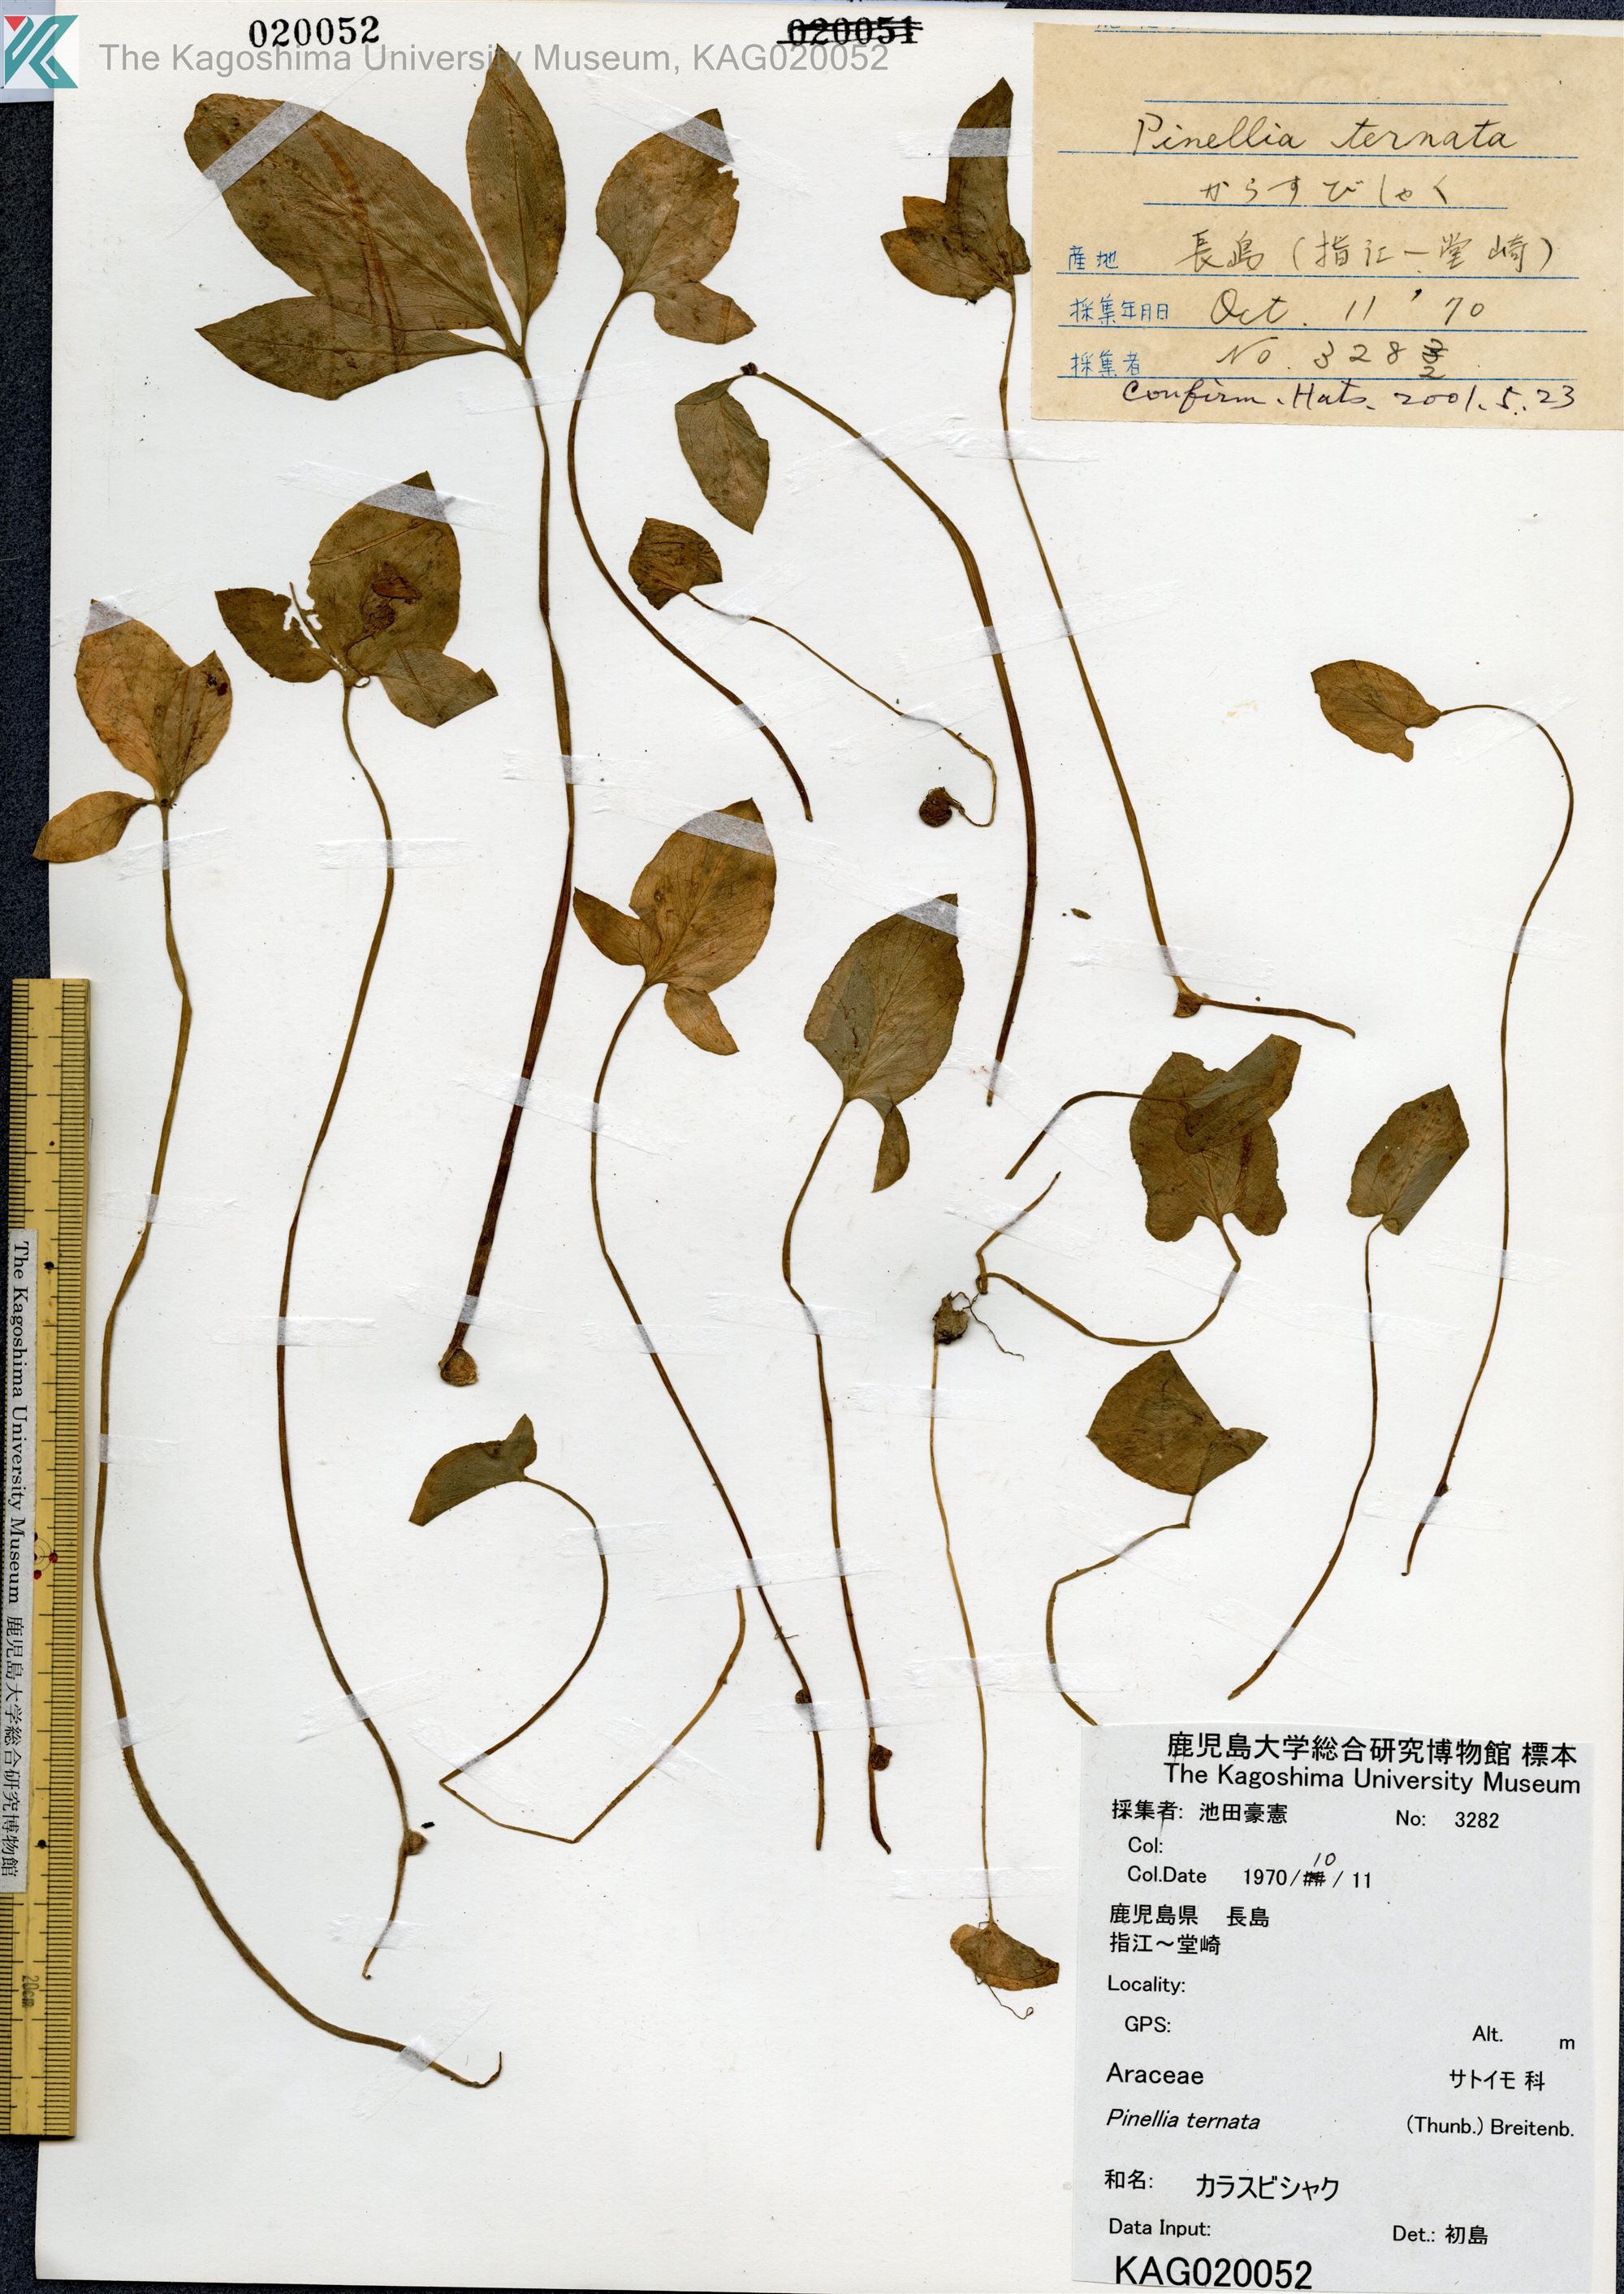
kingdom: Plantae
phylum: Tracheophyta
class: Liliopsida
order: Alismatales
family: Araceae
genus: Pinellia
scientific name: Pinellia ternata
